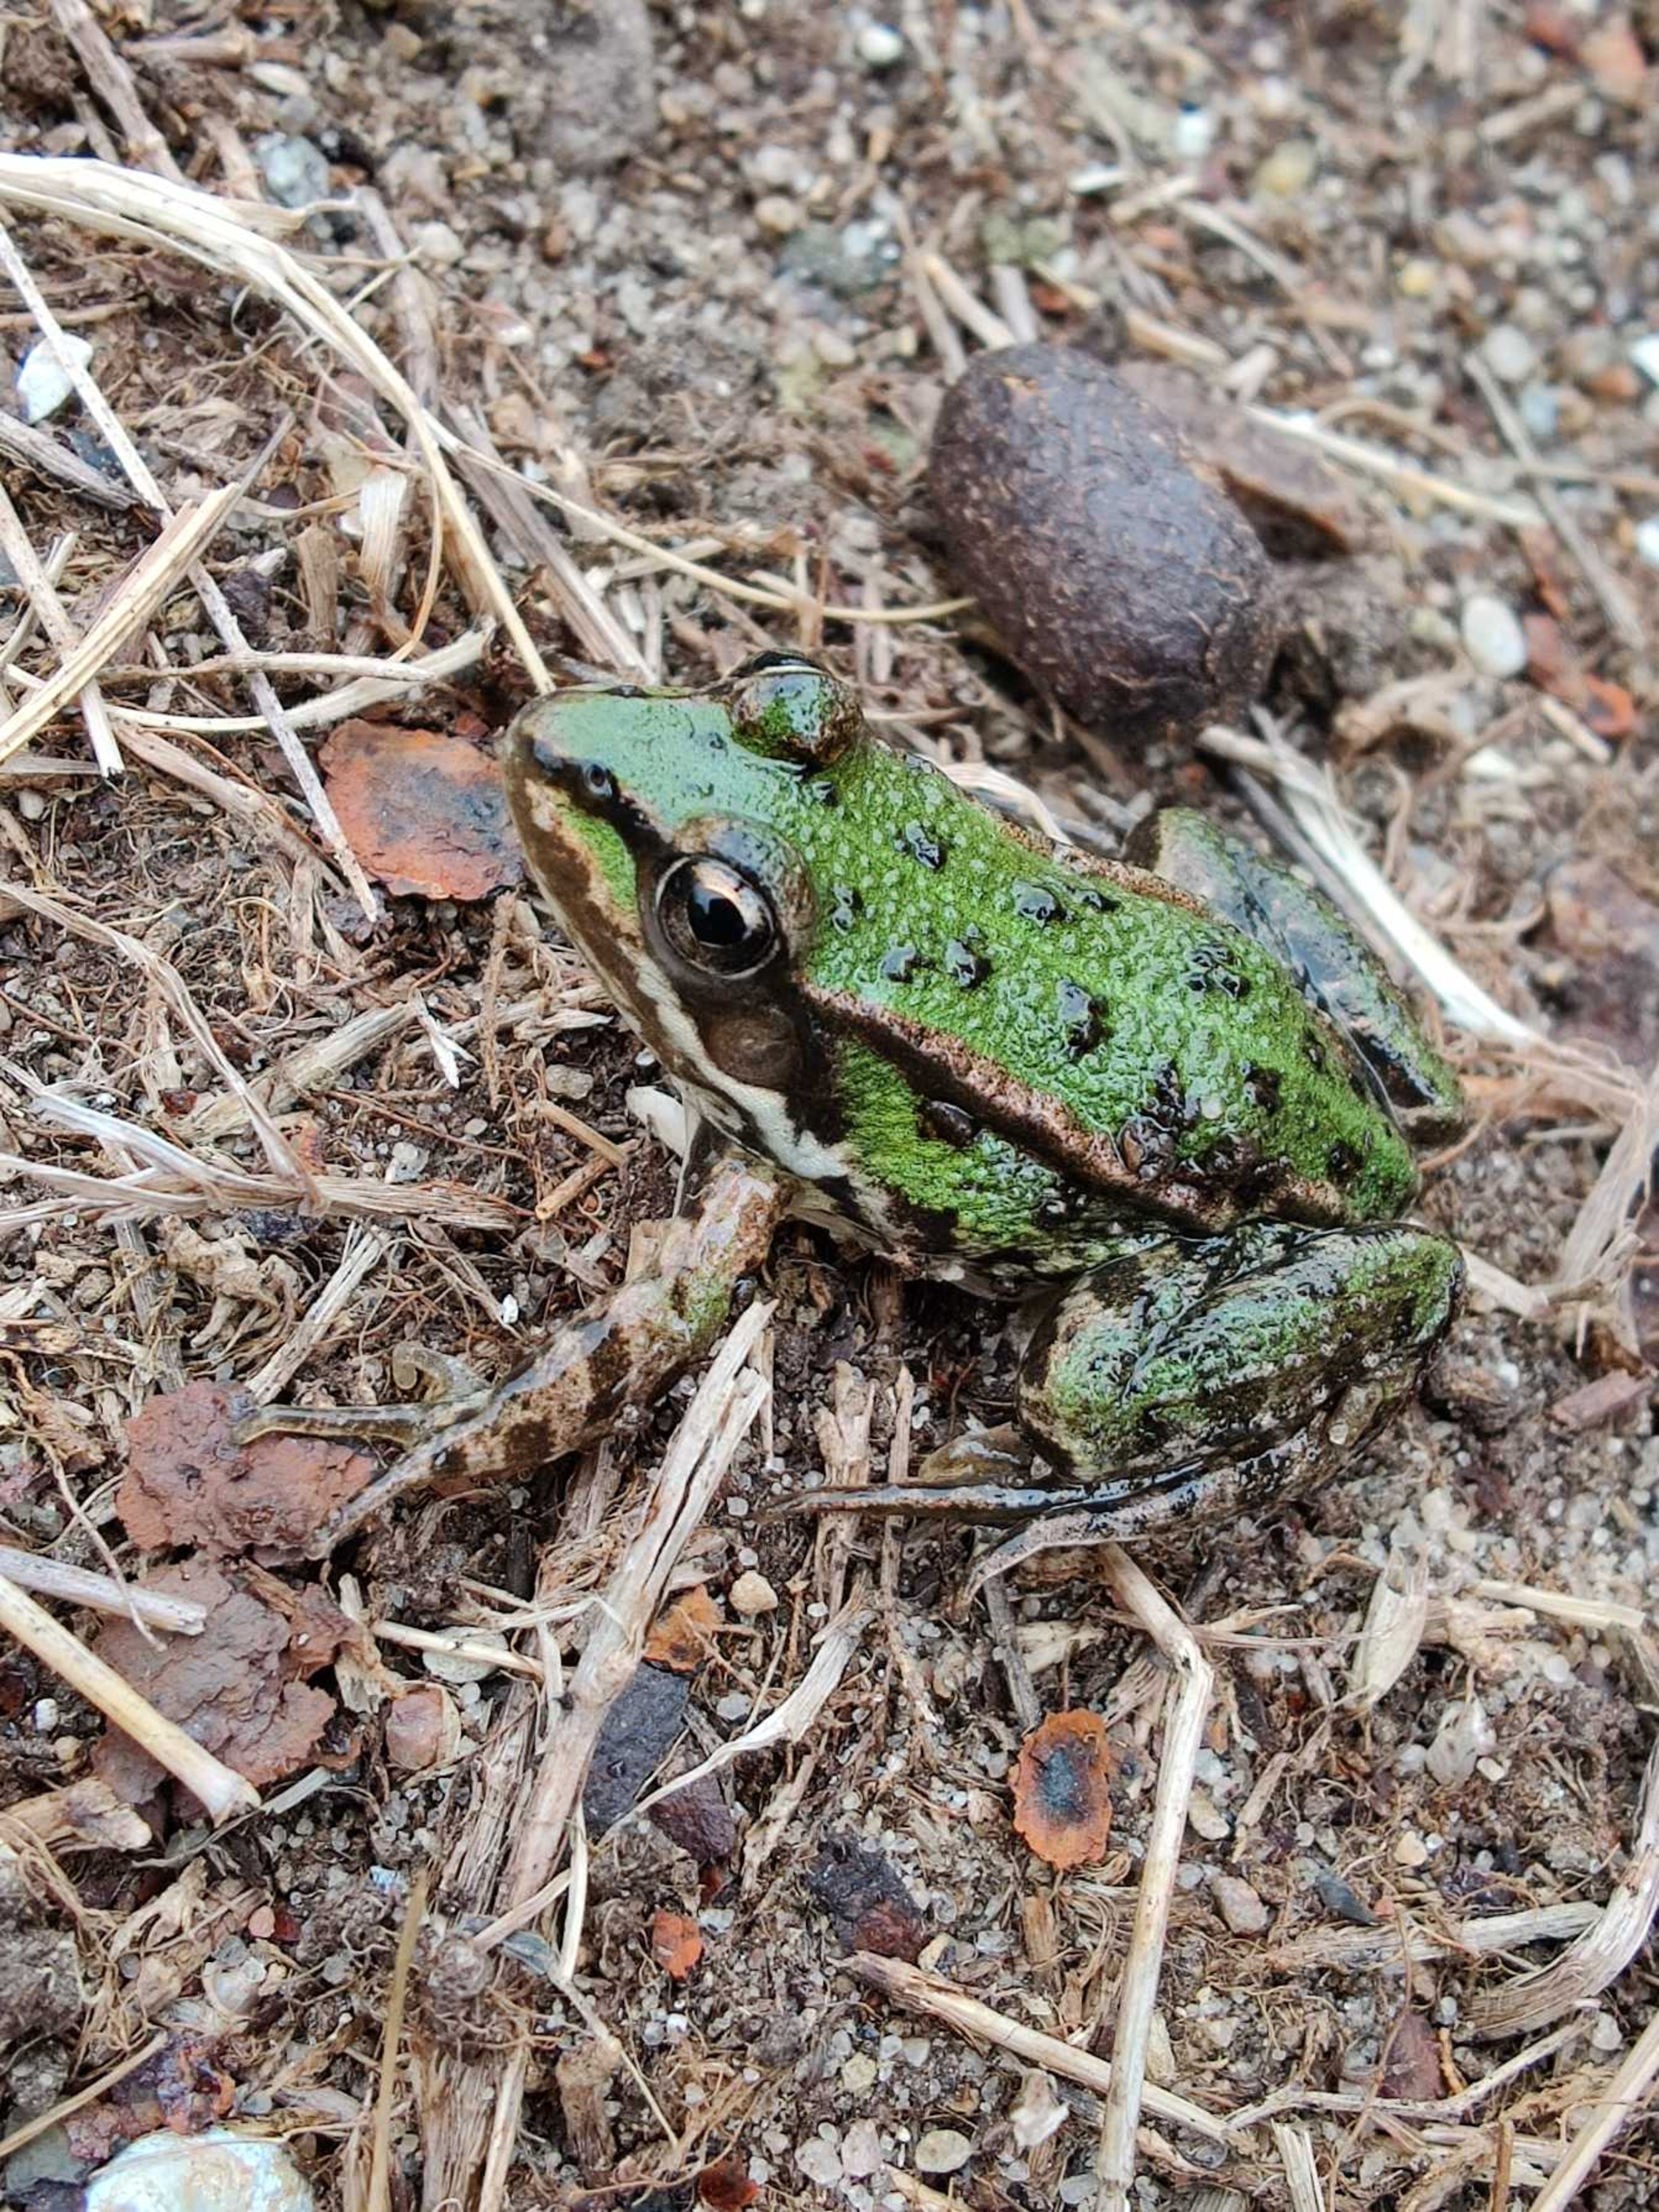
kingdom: Animalia
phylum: Chordata
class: Amphibia
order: Anura
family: Ranidae
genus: Pelophylax
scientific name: Pelophylax lessonae
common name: Grøn frø
